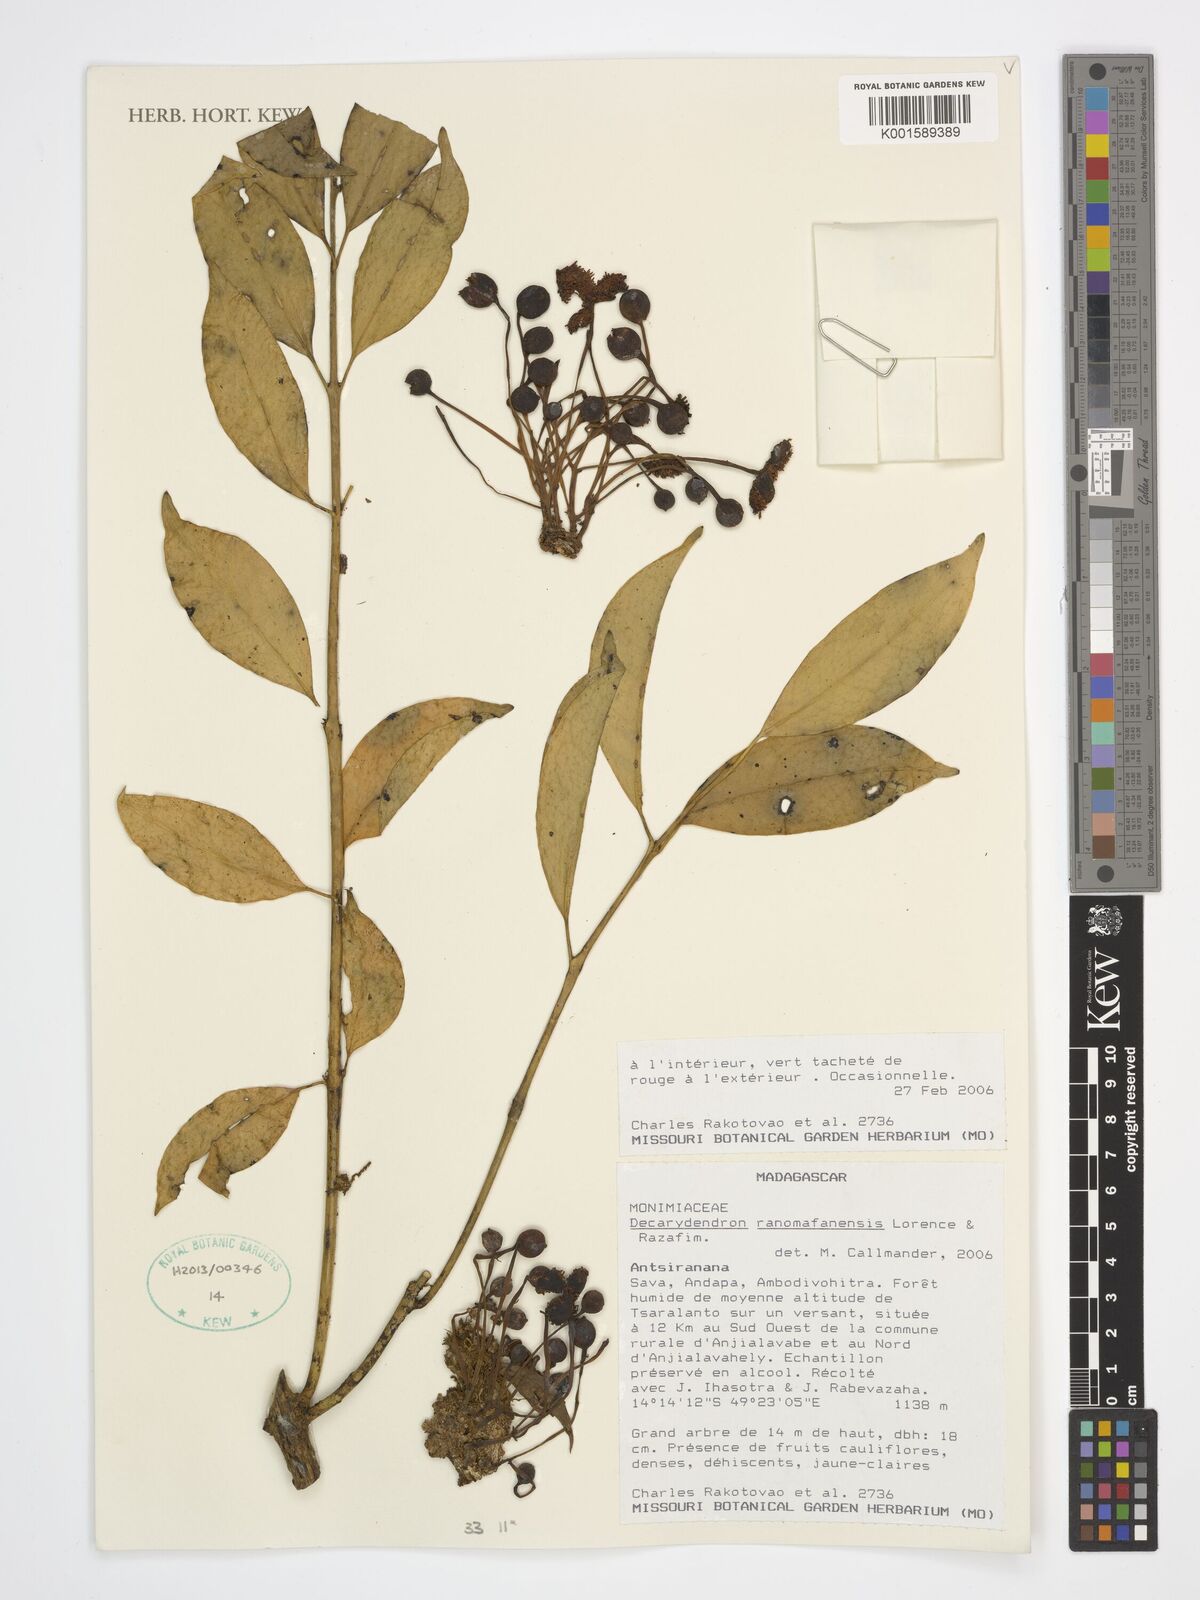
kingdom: Plantae
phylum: Tracheophyta
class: Magnoliopsida
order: Laurales
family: Monimiaceae
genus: Decarydendron
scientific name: Decarydendron ranomafanensis
